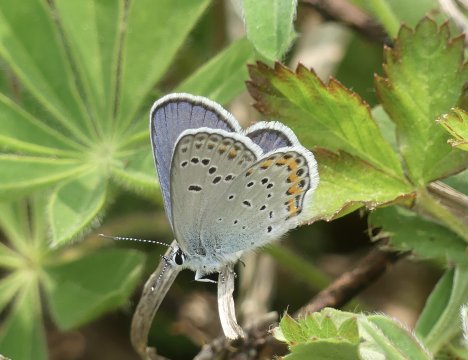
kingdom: Animalia
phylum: Arthropoda
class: Insecta
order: Lepidoptera
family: Lycaenidae
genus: Plebejus
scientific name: Plebejus samuelis
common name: Karner Blue
